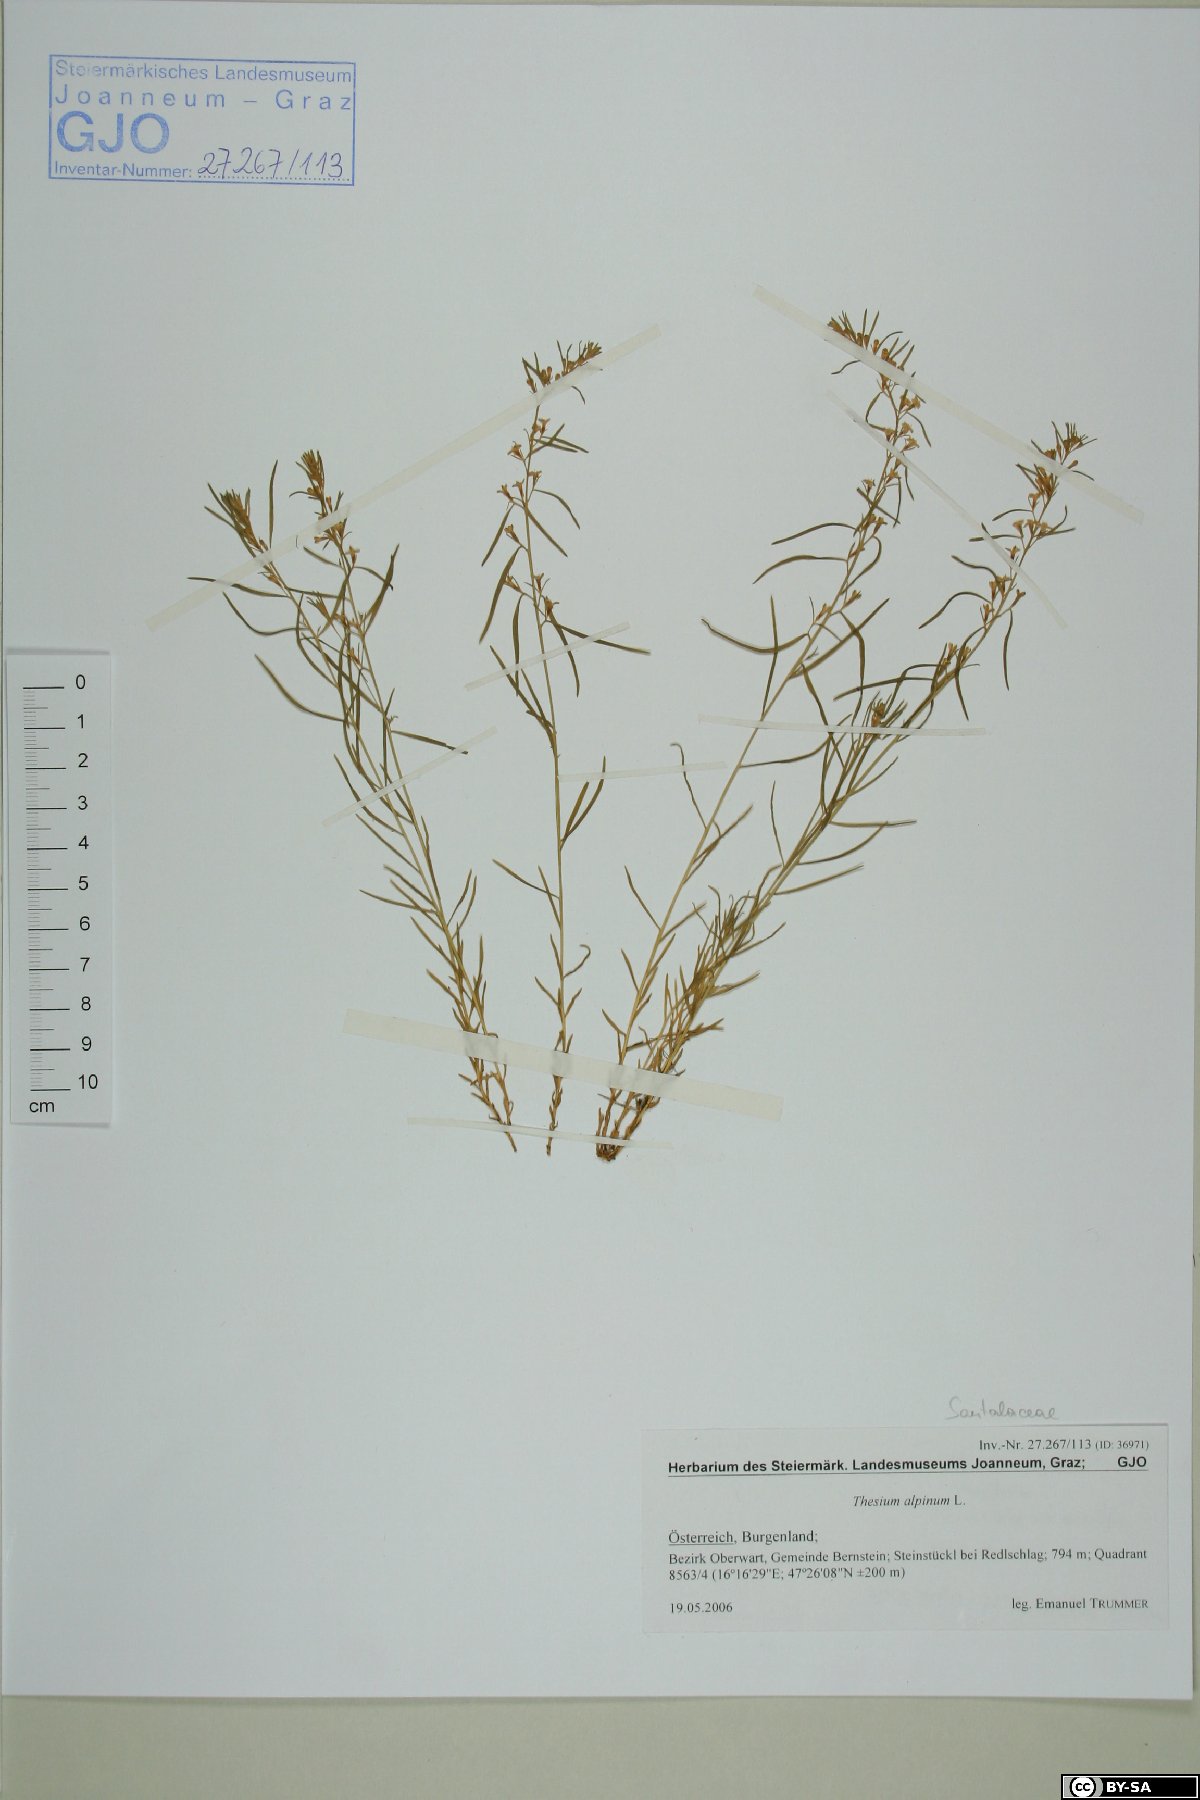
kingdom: Plantae
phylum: Tracheophyta
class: Magnoliopsida
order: Santalales
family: Thesiaceae
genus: Thesium
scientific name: Thesium alpinum
